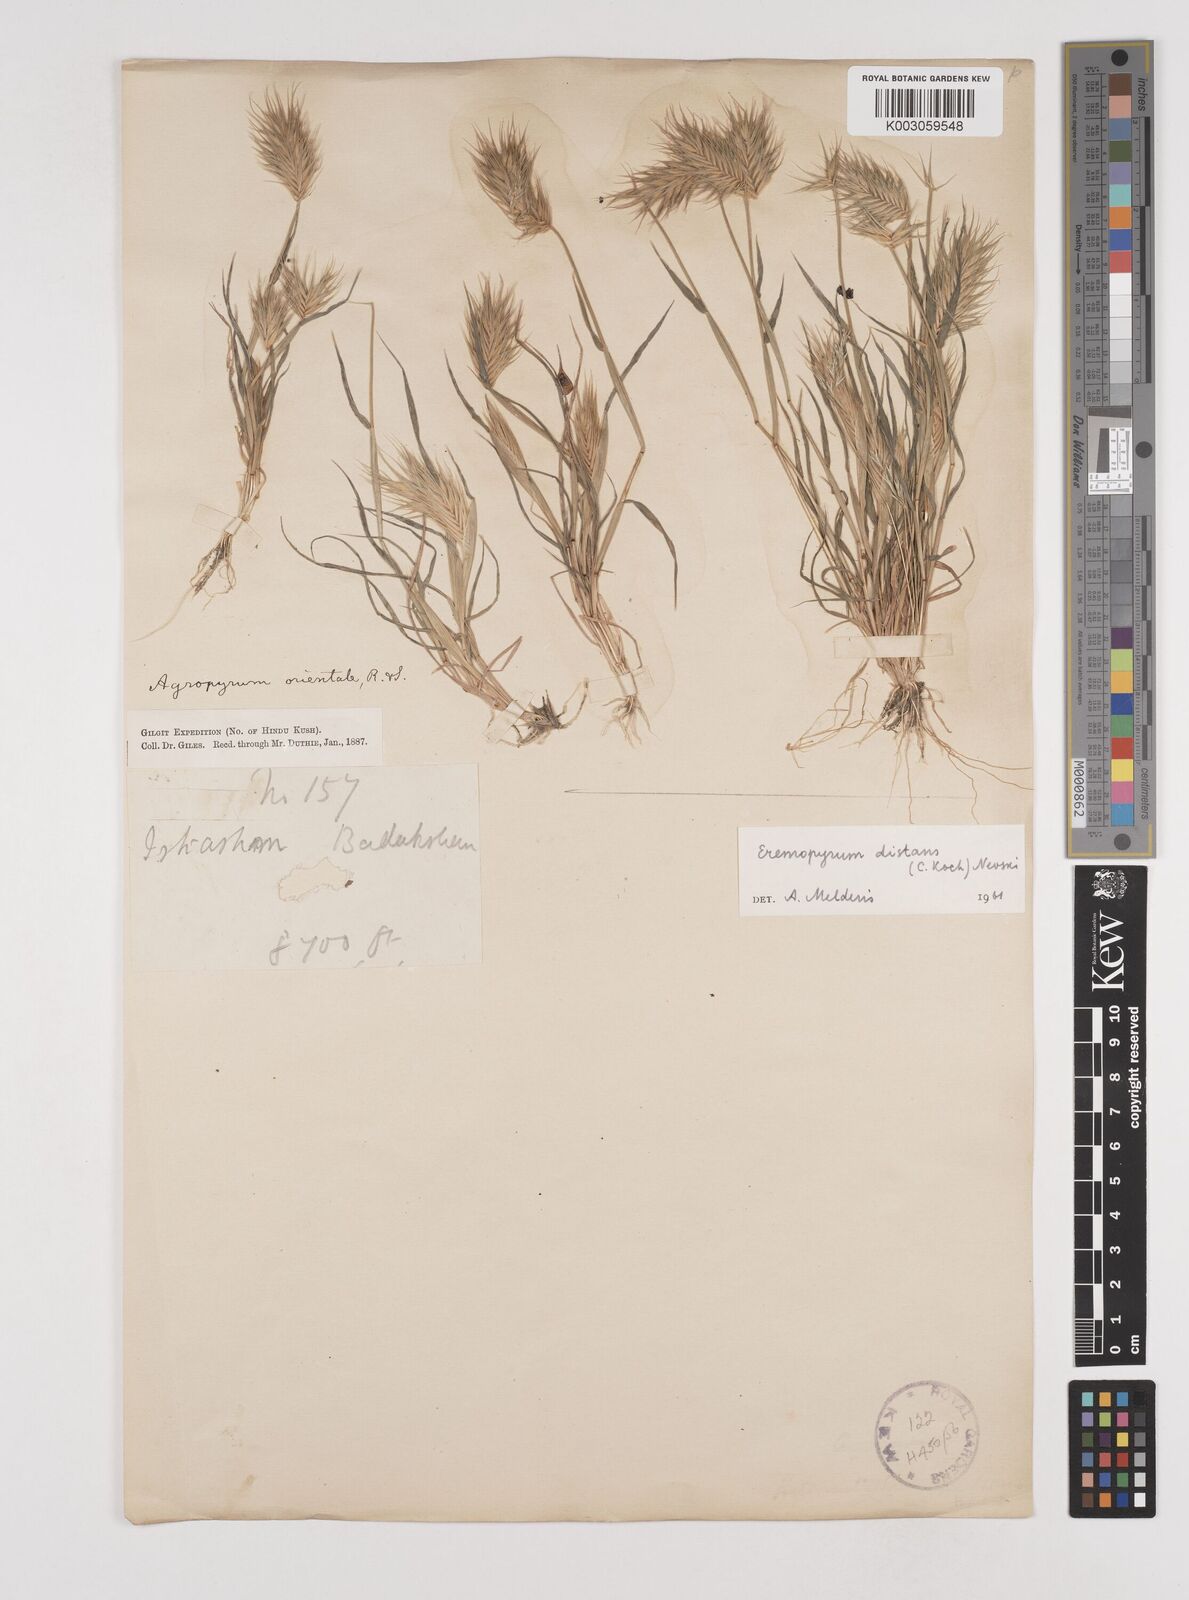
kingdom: Plantae
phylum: Tracheophyta
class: Liliopsida
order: Poales
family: Poaceae
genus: Eremopyrum
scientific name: Eremopyrum distans
